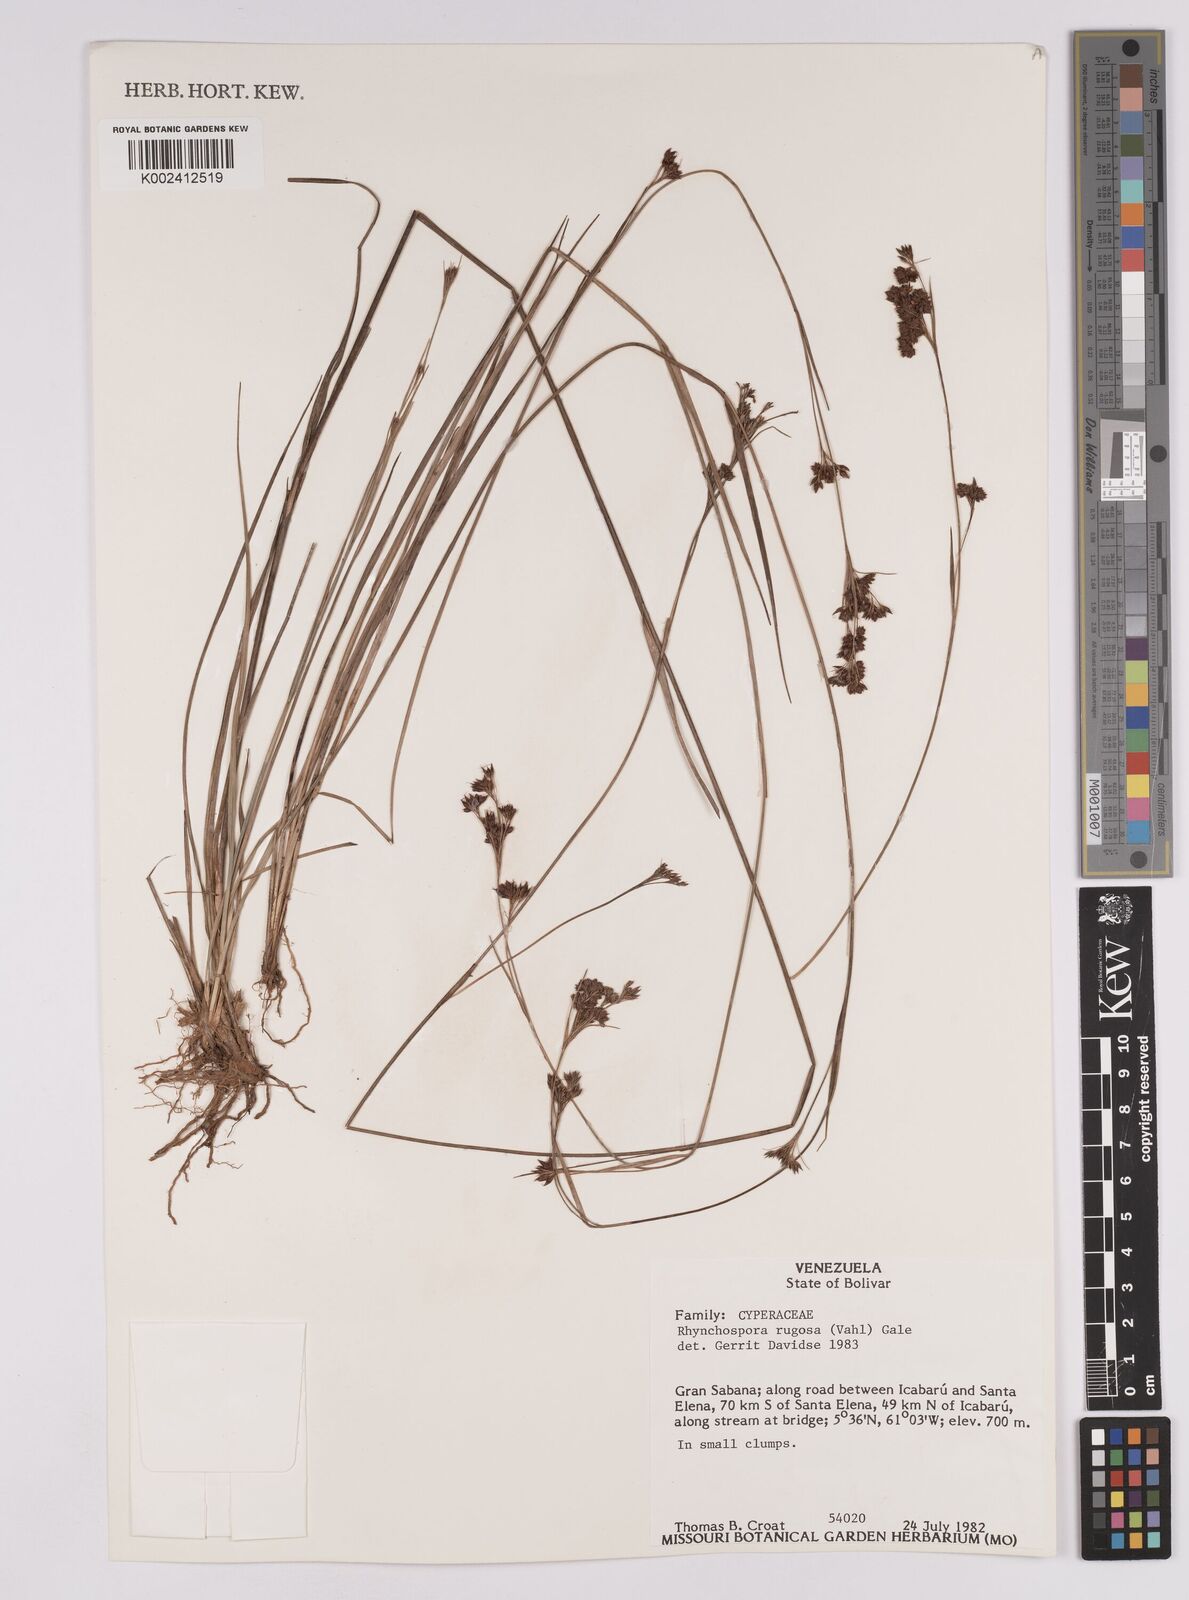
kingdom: Plantae
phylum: Tracheophyta
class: Liliopsida
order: Poales
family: Cyperaceae
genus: Rhynchospora
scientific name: Rhynchospora rugosa
